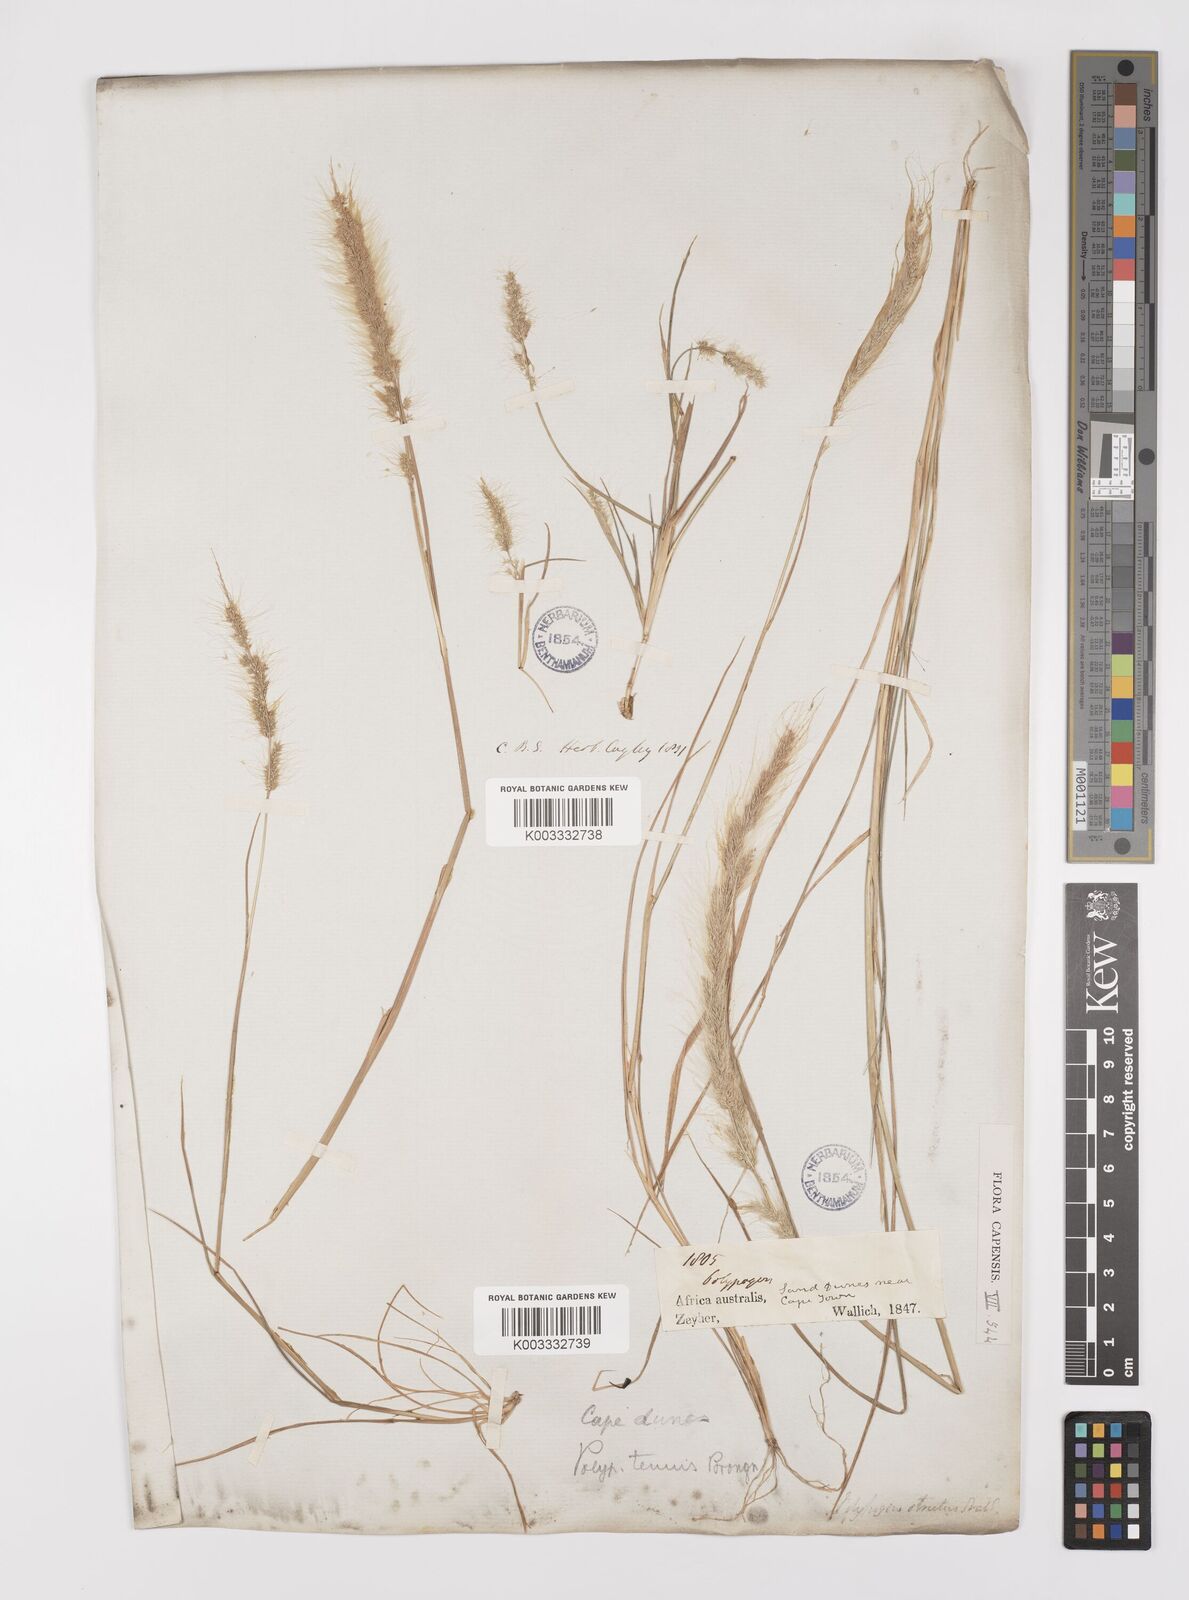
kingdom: Plantae
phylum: Tracheophyta
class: Liliopsida
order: Poales
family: Poaceae
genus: Polypogon
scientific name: Polypogon tenuis
